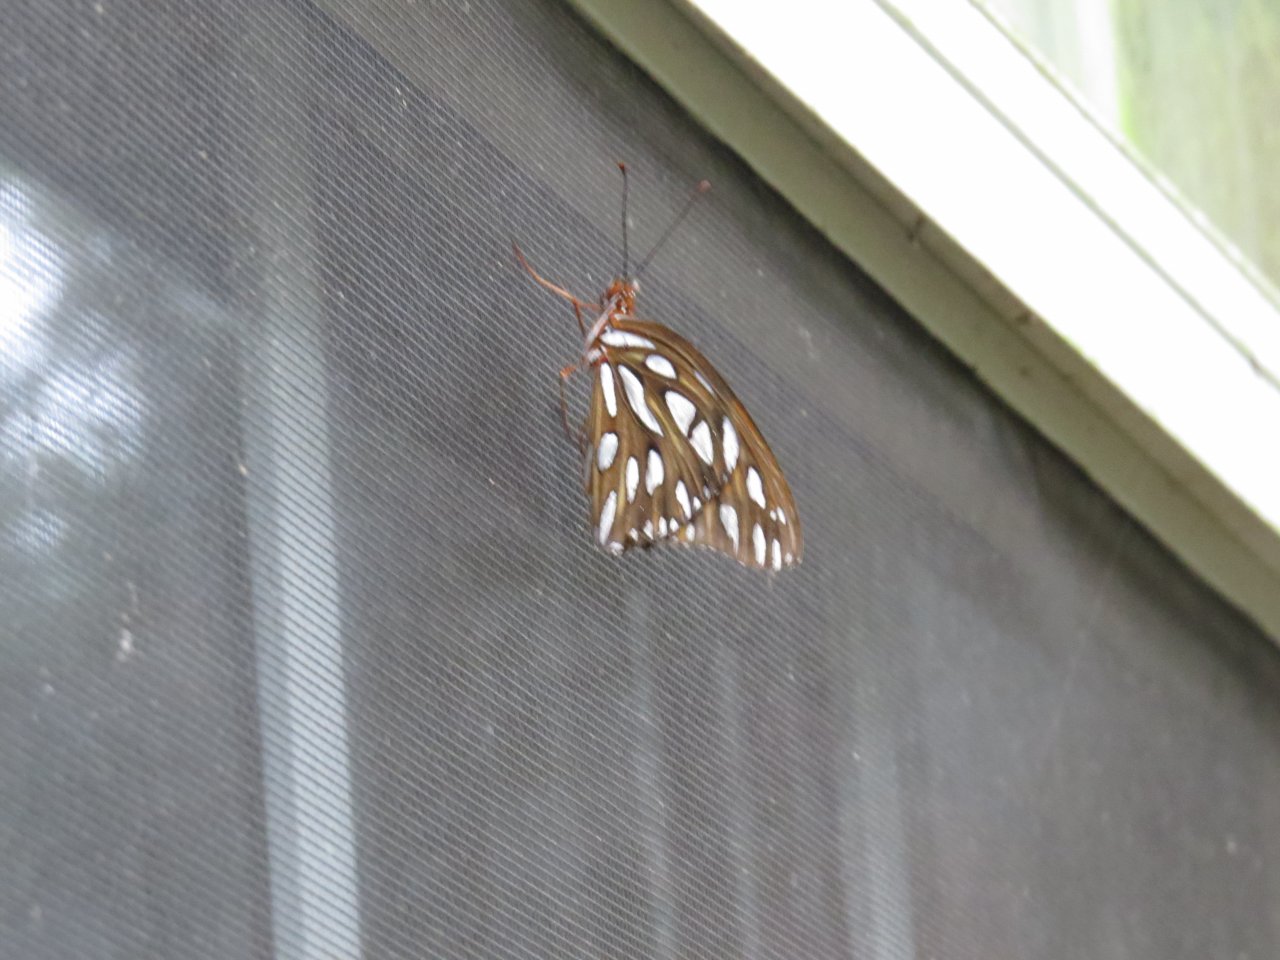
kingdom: Animalia
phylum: Arthropoda
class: Insecta
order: Lepidoptera
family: Nymphalidae
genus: Dione
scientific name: Dione vanillae
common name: Gulf Fritillary
